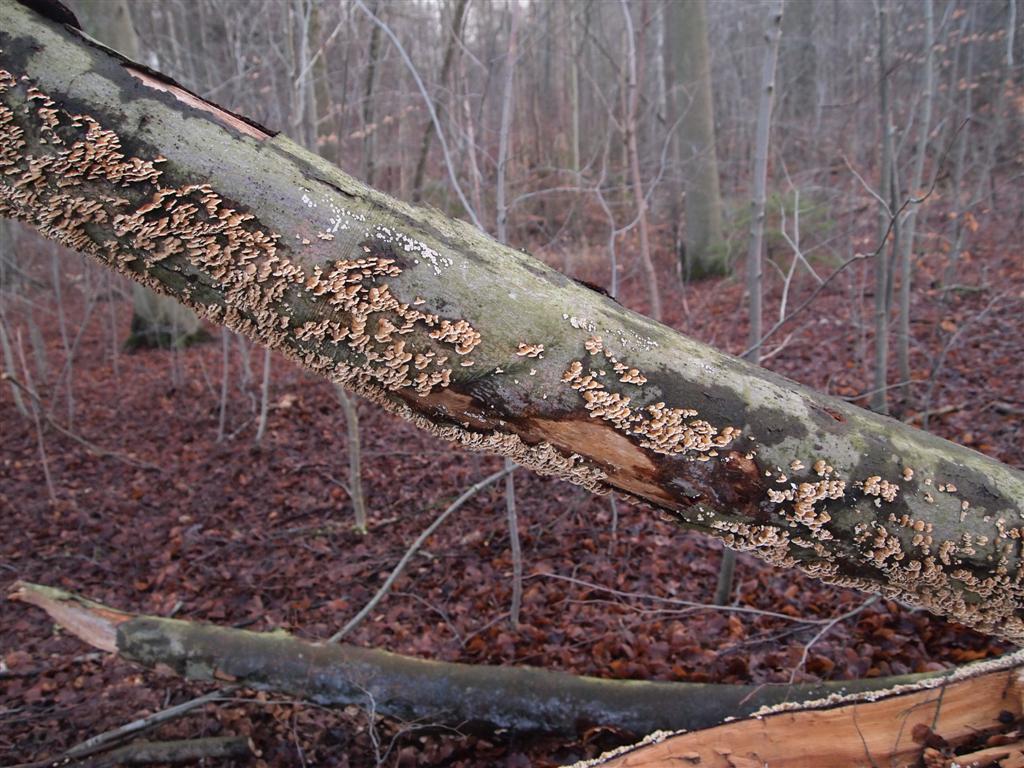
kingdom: Fungi
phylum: Basidiomycota
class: Agaricomycetes
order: Amylocorticiales
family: Amylocorticiaceae
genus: Plicaturopsis
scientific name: Plicaturopsis crispa
